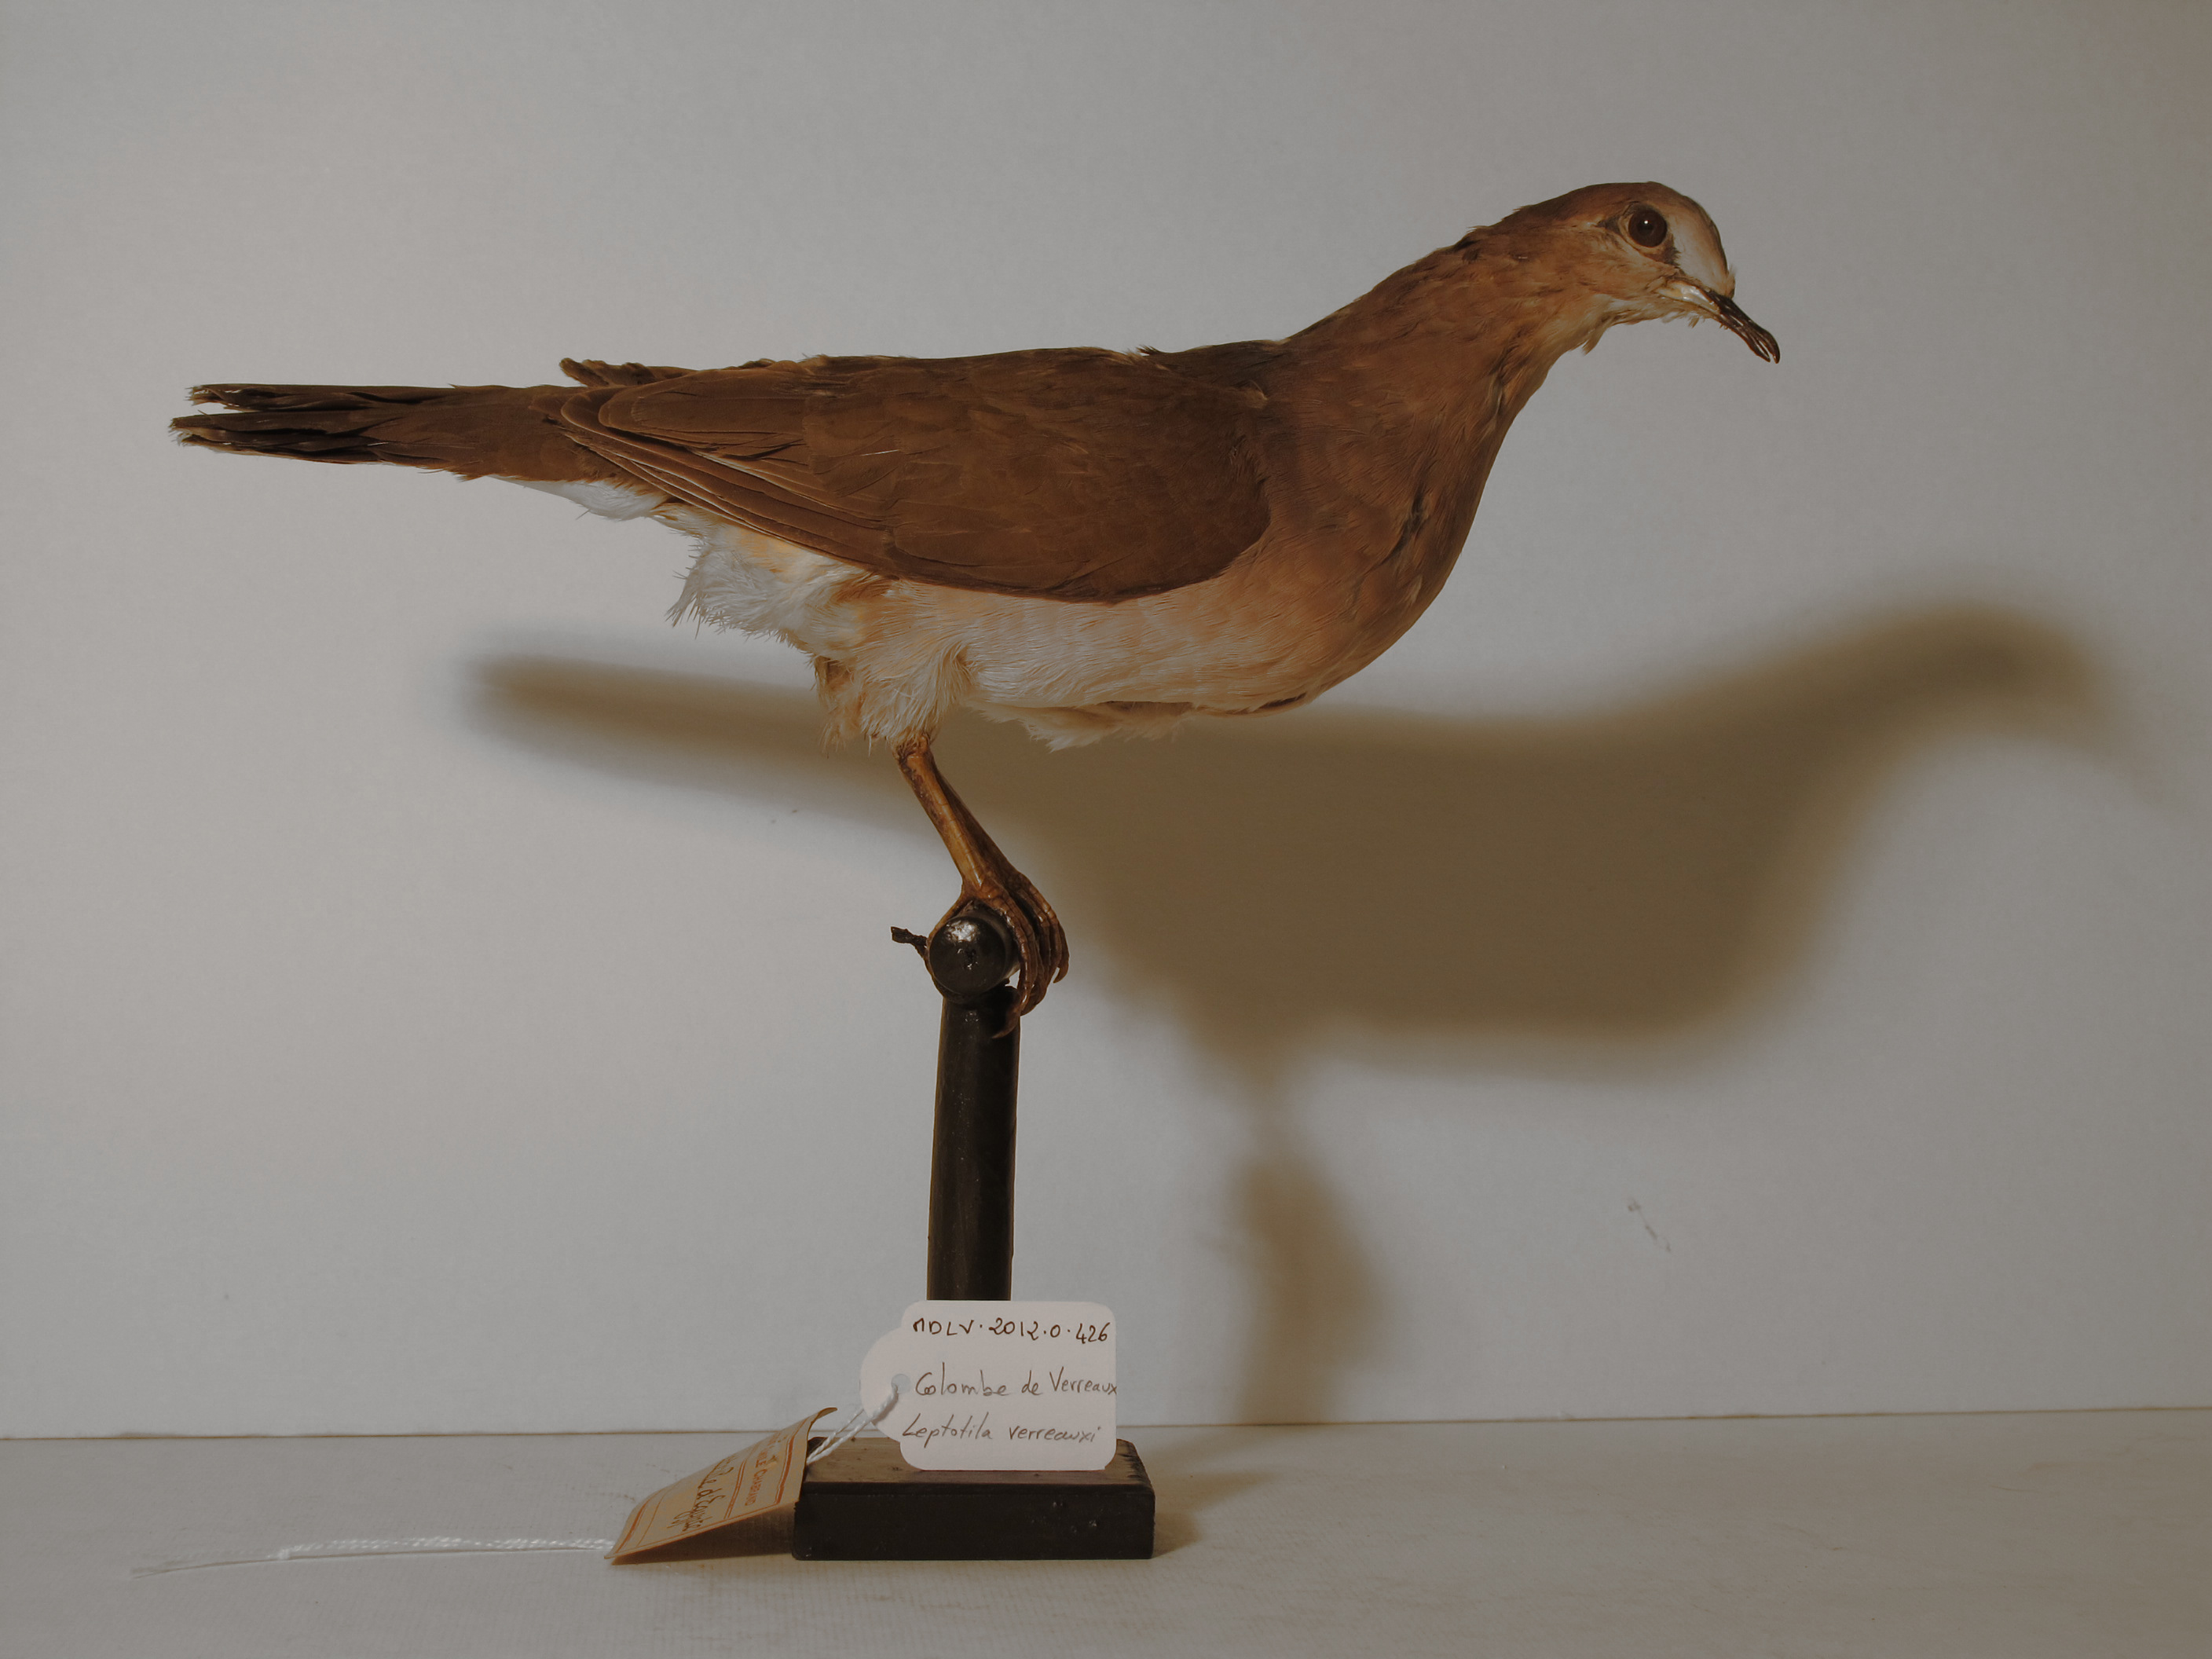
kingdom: Animalia
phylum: Chordata
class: Aves
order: Columbiformes
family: Columbidae
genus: Leptotila
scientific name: Leptotila verreauxi
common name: White-tipped Dove
